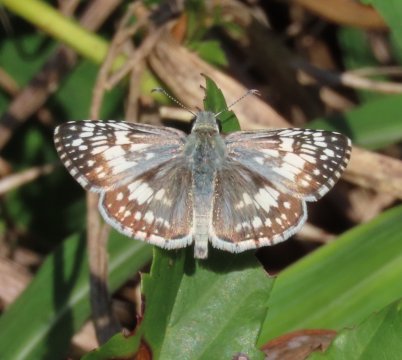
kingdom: Animalia
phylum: Arthropoda
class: Insecta
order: Lepidoptera
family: Hesperiidae
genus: Pyrgus
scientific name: Pyrgus communis
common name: White Checkered-Skipper
